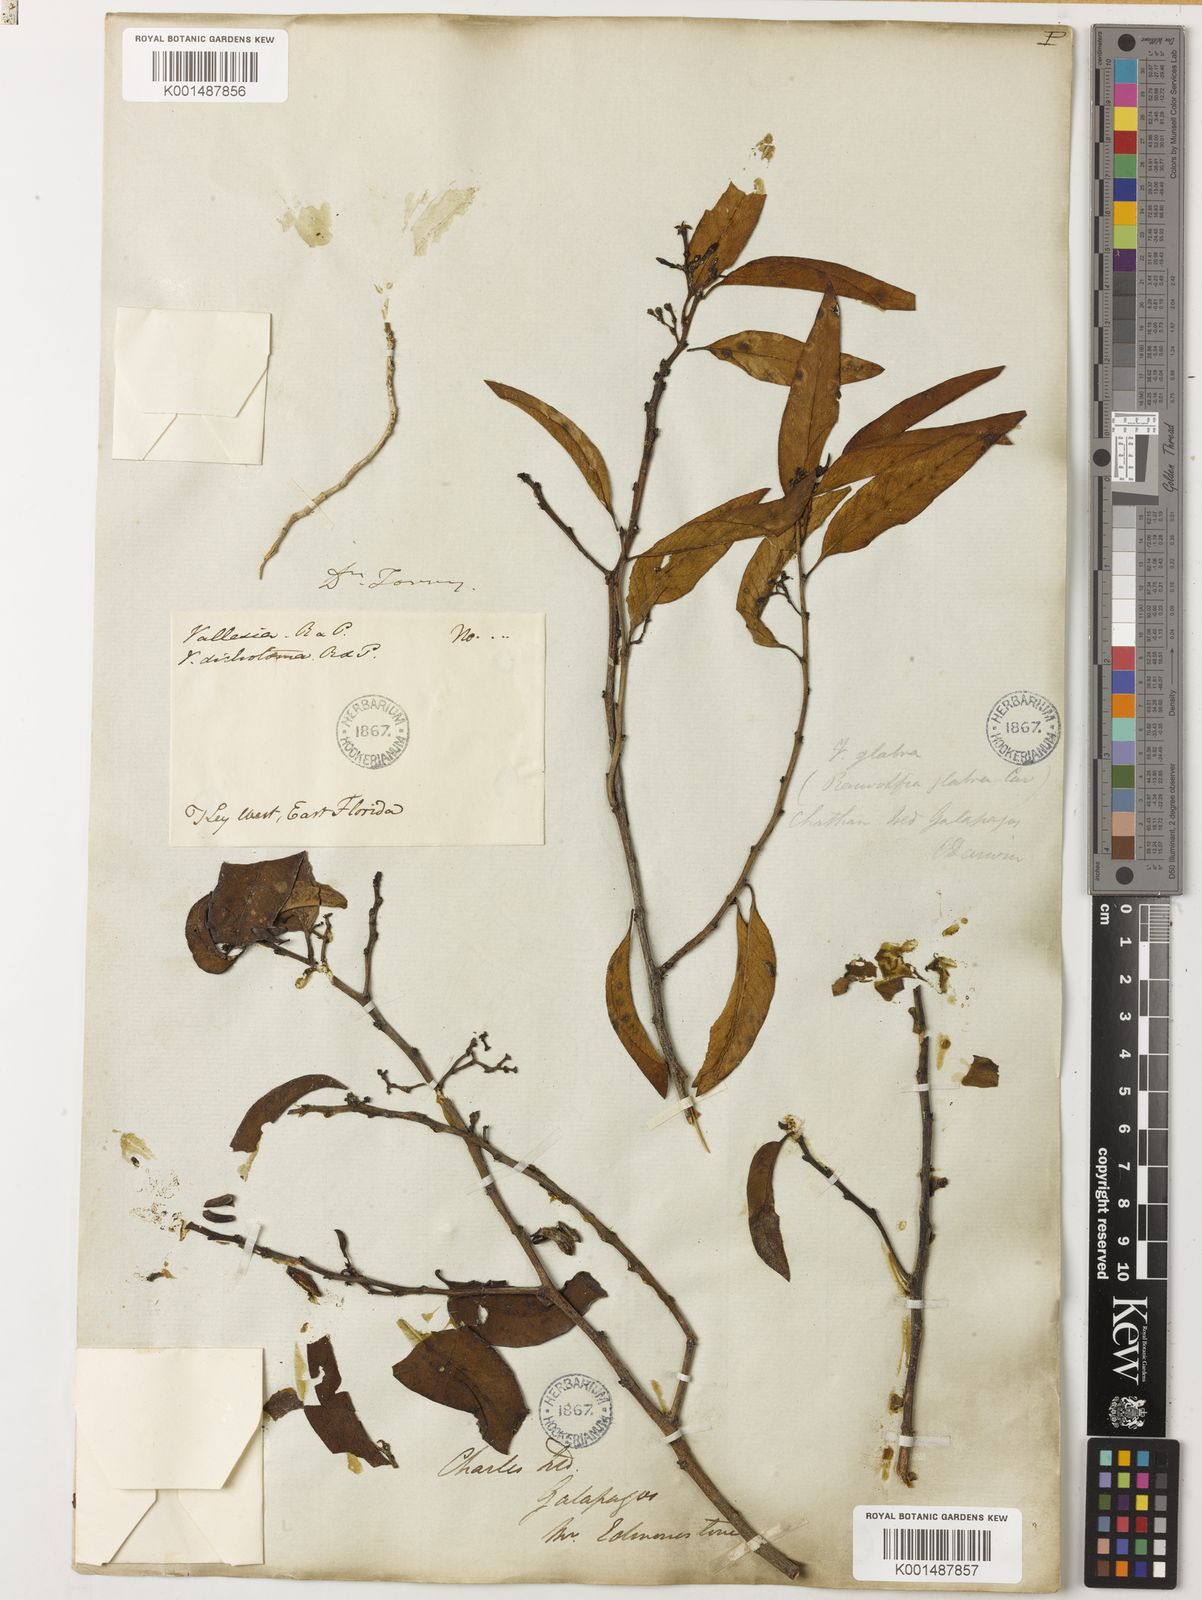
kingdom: Plantae
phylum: Tracheophyta
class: Magnoliopsida
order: Gentianales
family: Apocynaceae
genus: Vallesia
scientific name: Vallesia glabra
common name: Pearlberry
